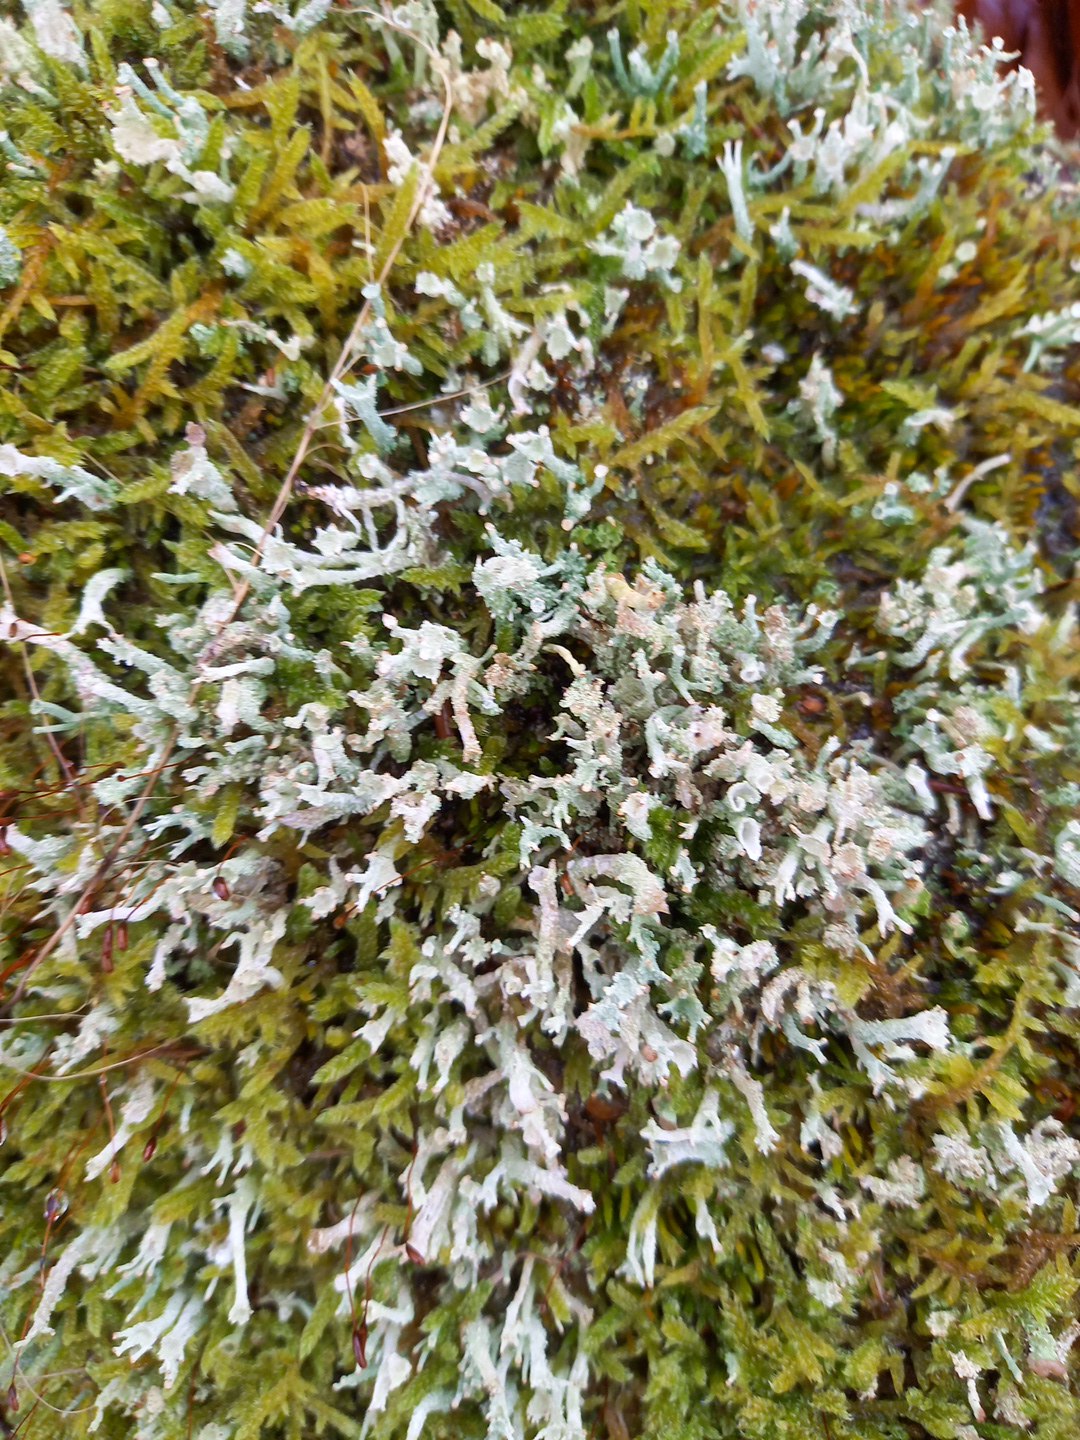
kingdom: Fungi
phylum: Ascomycota
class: Lecanoromycetes
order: Lecanorales
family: Cladoniaceae
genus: Cladonia
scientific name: Cladonia ramulosa
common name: kliddet bægerlav
